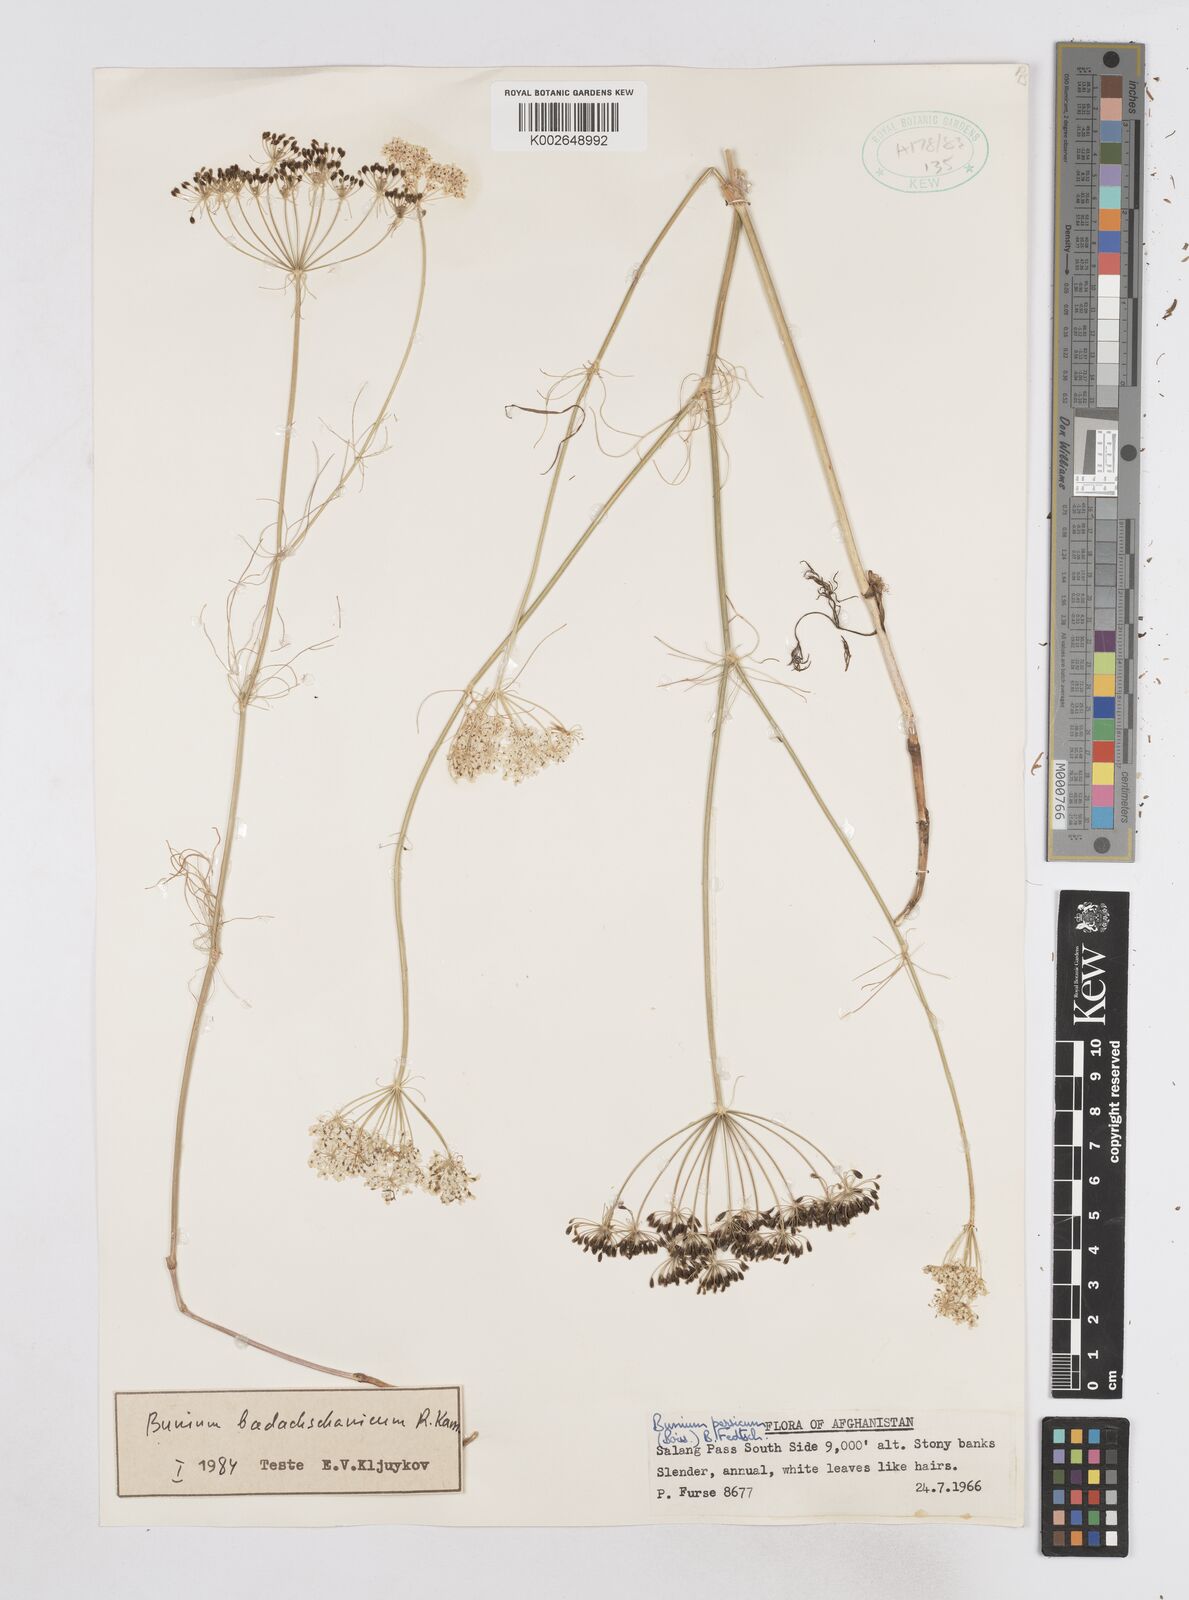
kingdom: Plantae
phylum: Tracheophyta
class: Magnoliopsida
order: Apiales
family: Apiaceae
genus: Elwendia
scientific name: Elwendia badachschanica
